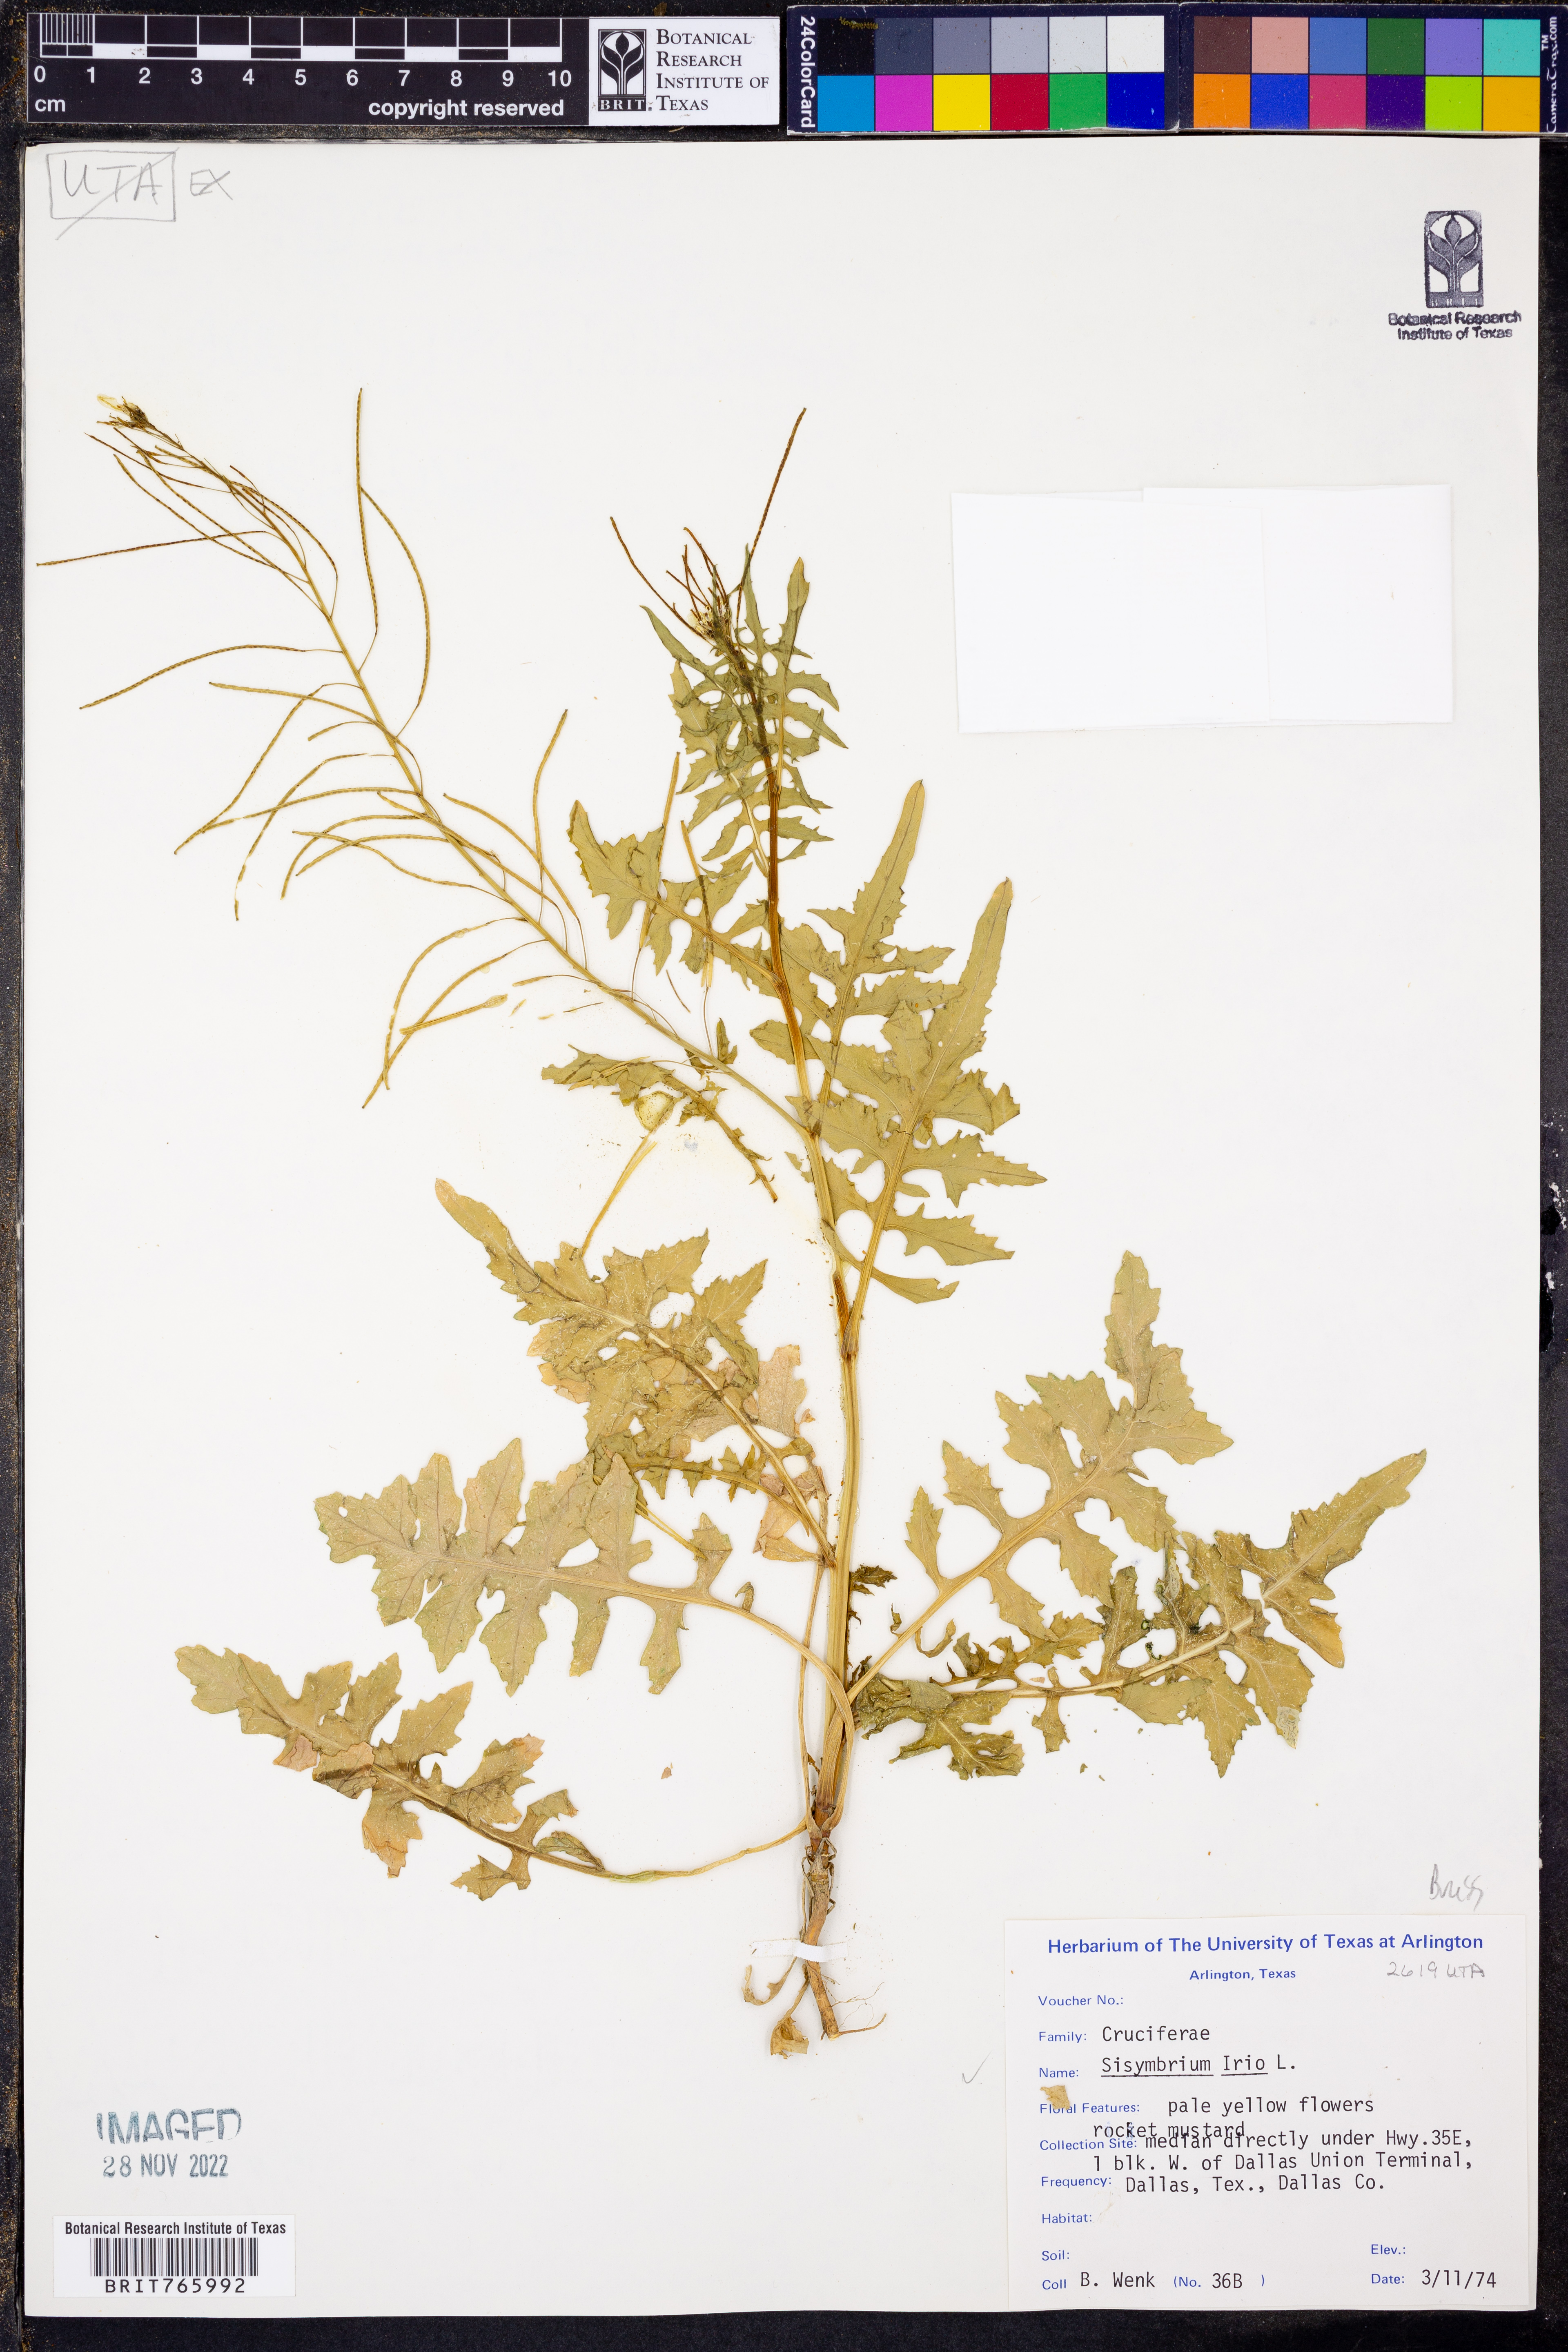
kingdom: Plantae
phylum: Tracheophyta
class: Magnoliopsida
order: Brassicales
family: Brassicaceae
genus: Sisymbrium
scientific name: Sisymbrium irio
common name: London rocket
